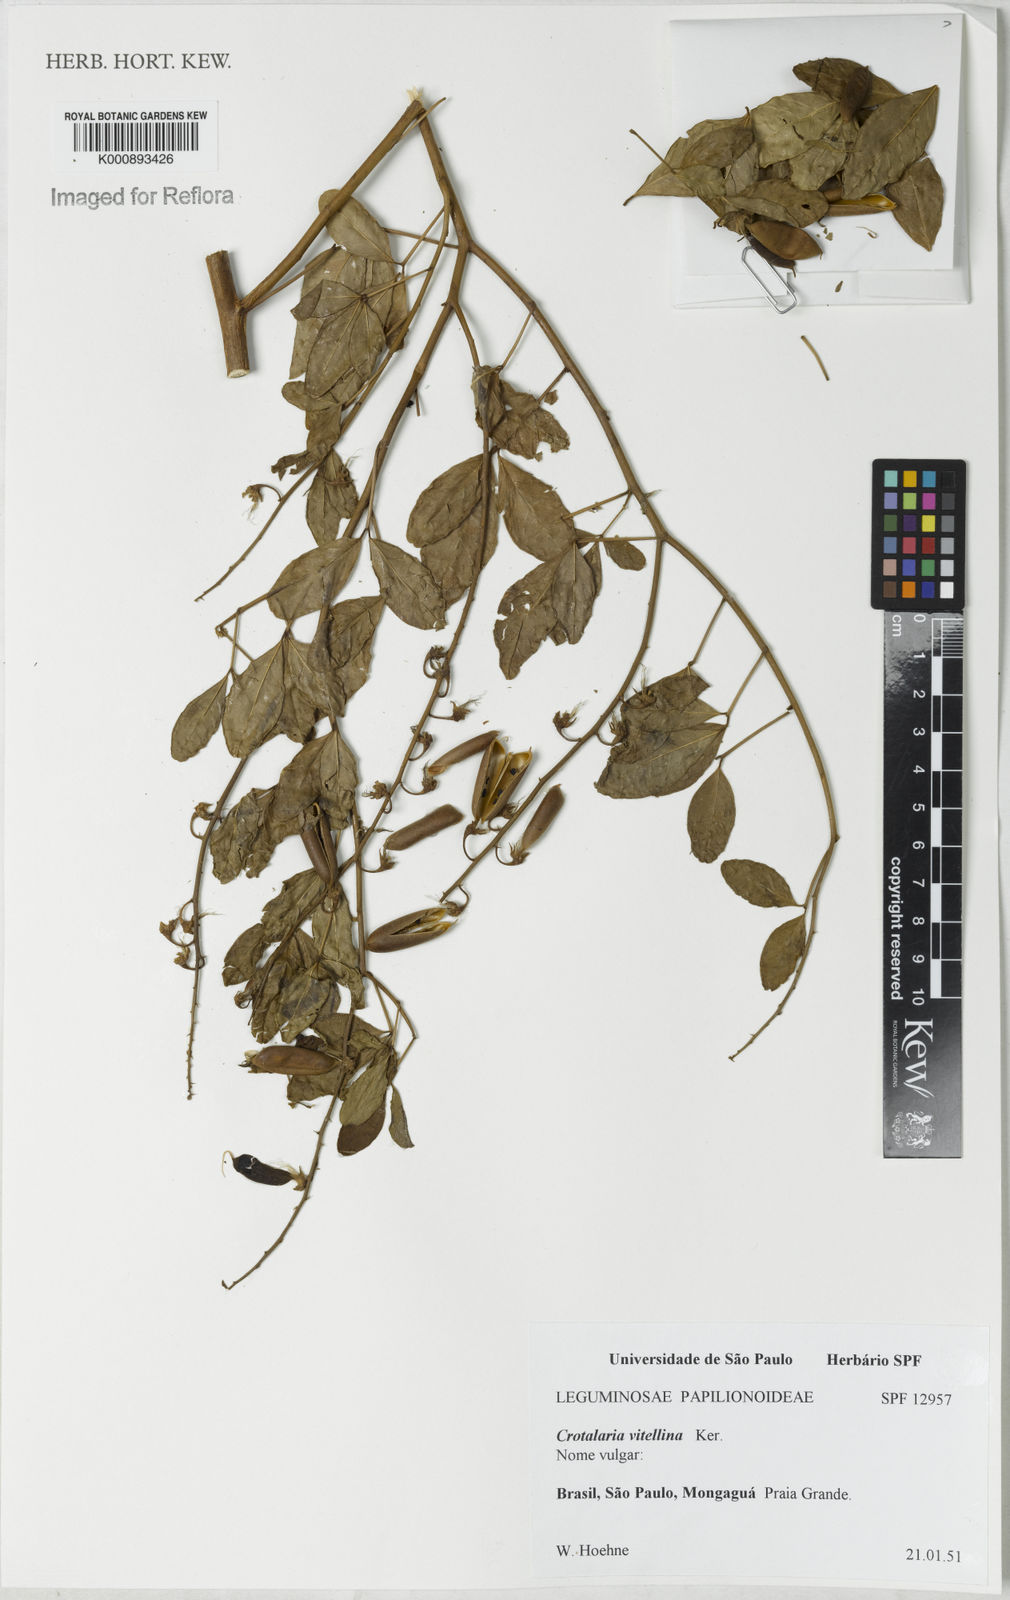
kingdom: Plantae
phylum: Tracheophyta
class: Magnoliopsida
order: Fabales
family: Fabaceae
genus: Crotalaria
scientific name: Crotalaria vitellina
